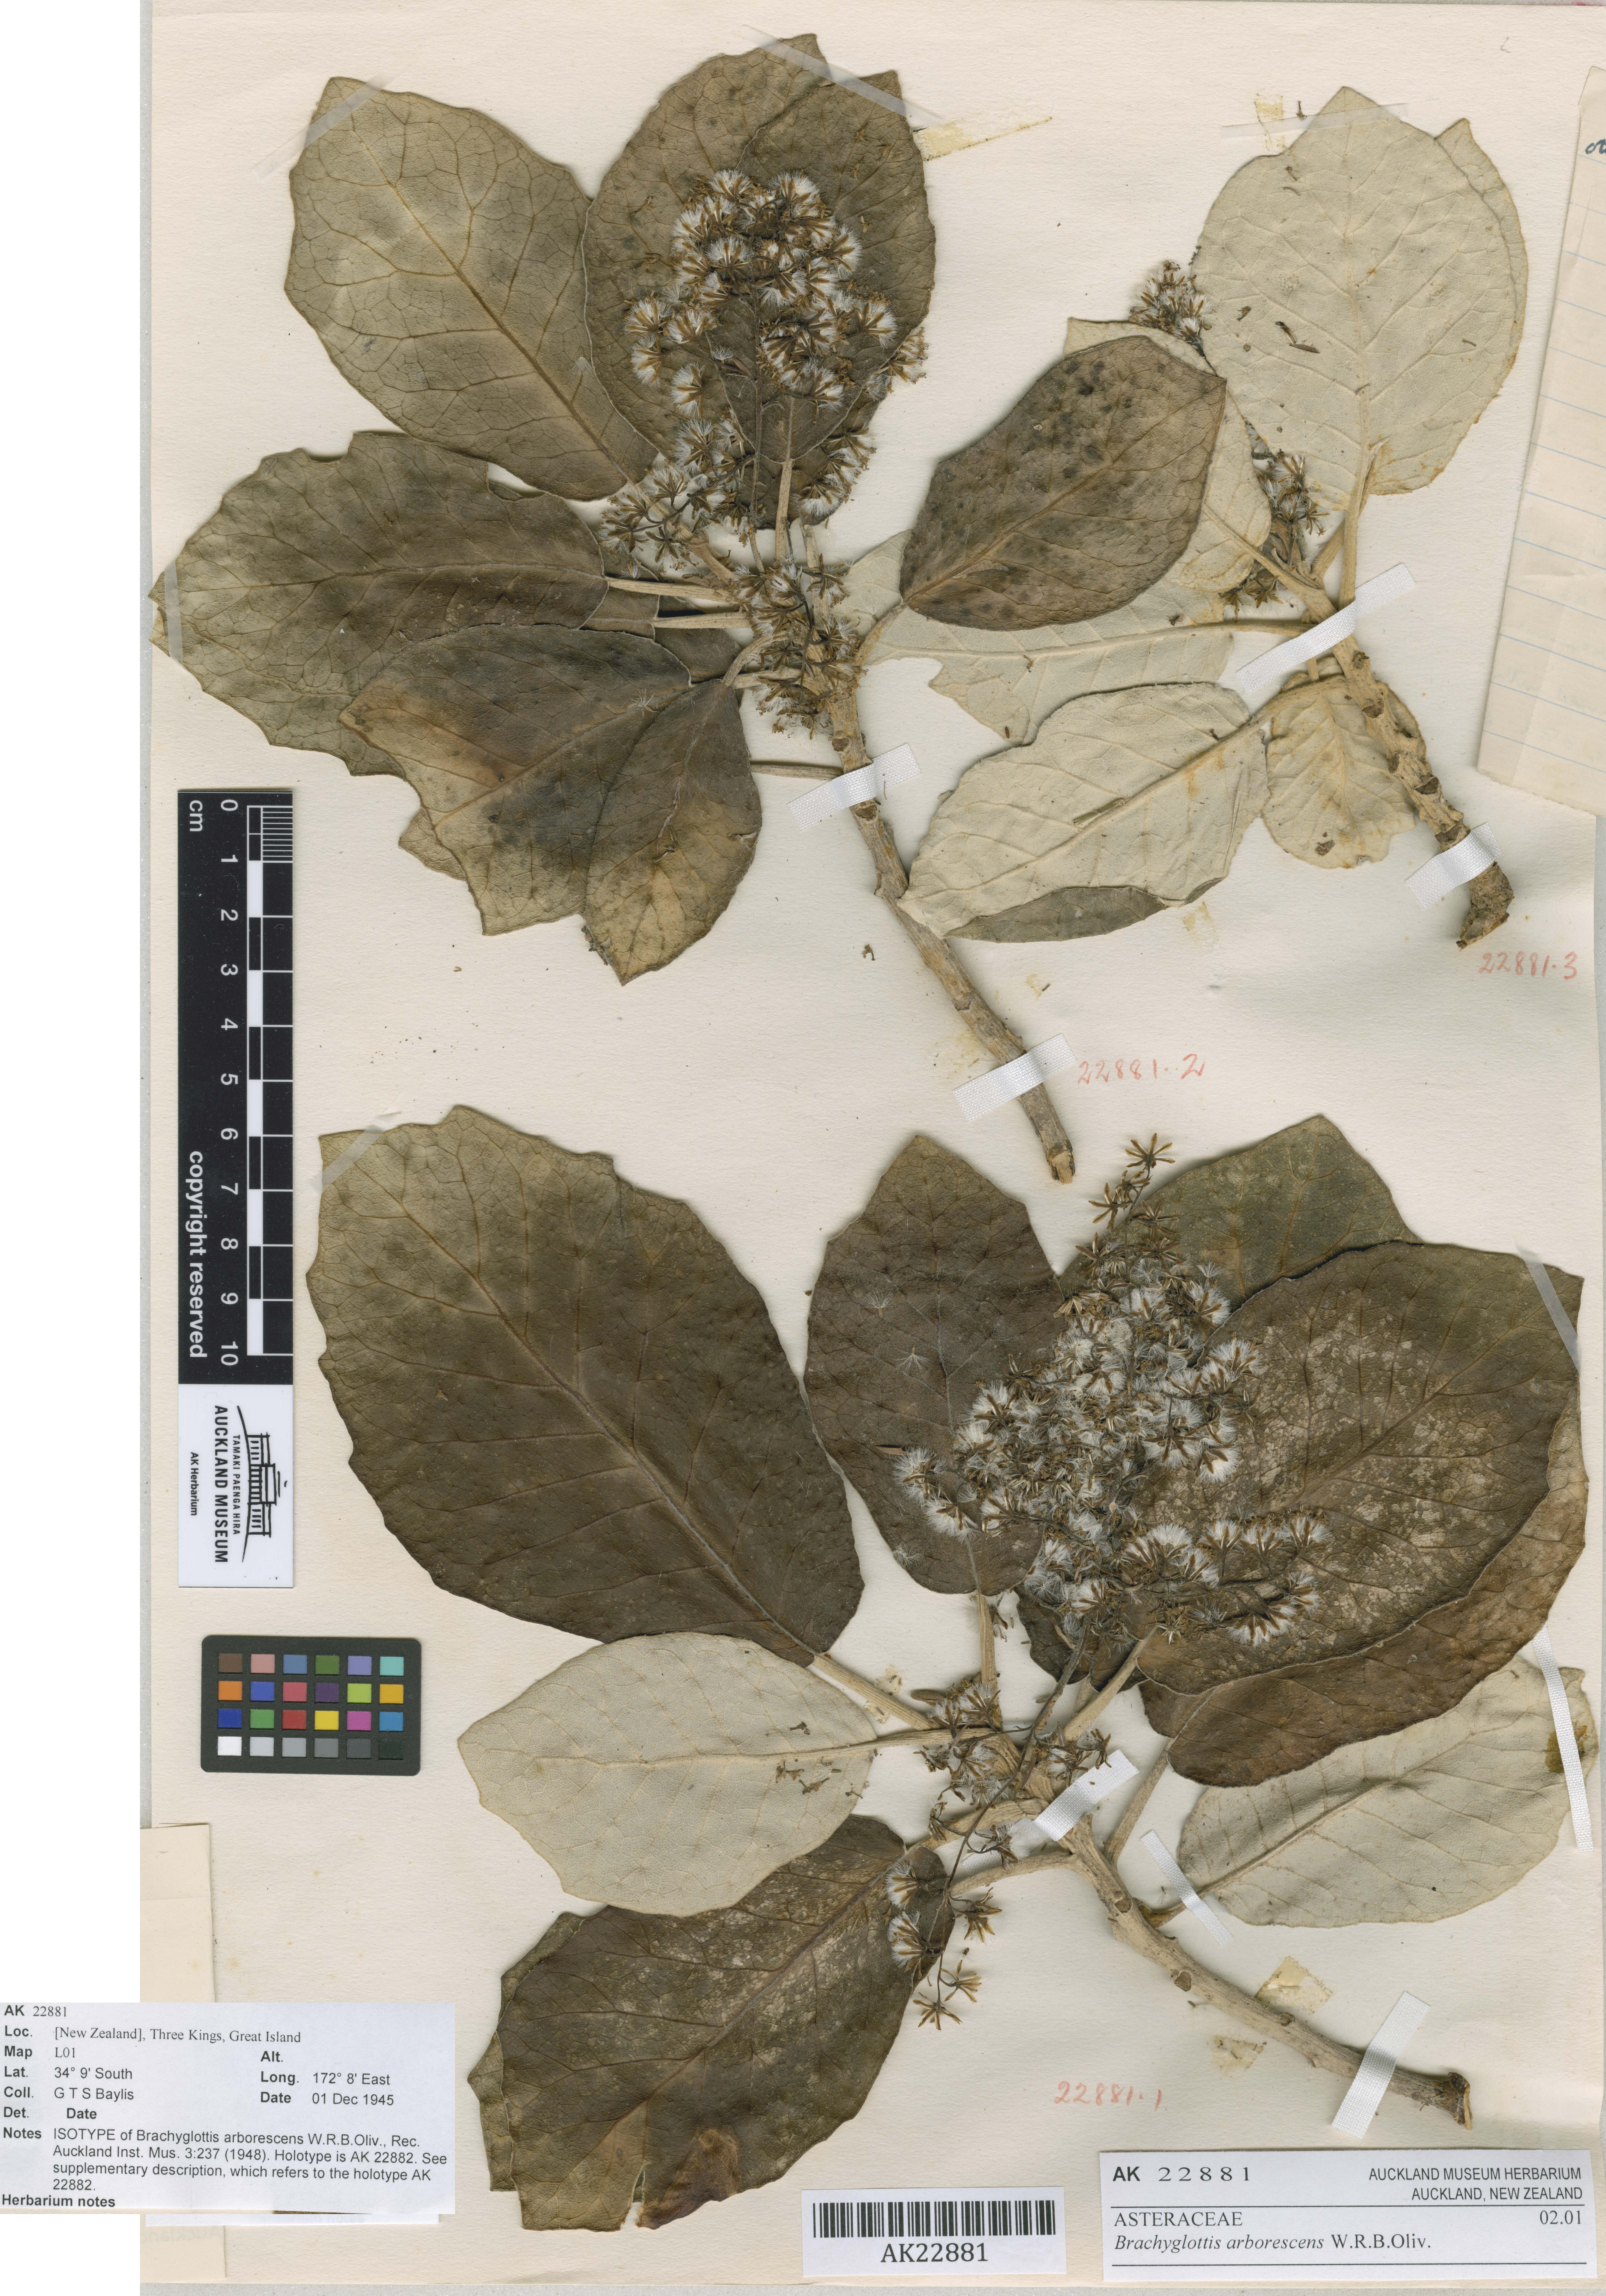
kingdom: Plantae
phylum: Tracheophyta
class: Magnoliopsida
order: Asterales
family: Asteraceae
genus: Brachyglottis
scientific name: Brachyglottis arborescens
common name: Three kings rangiora
